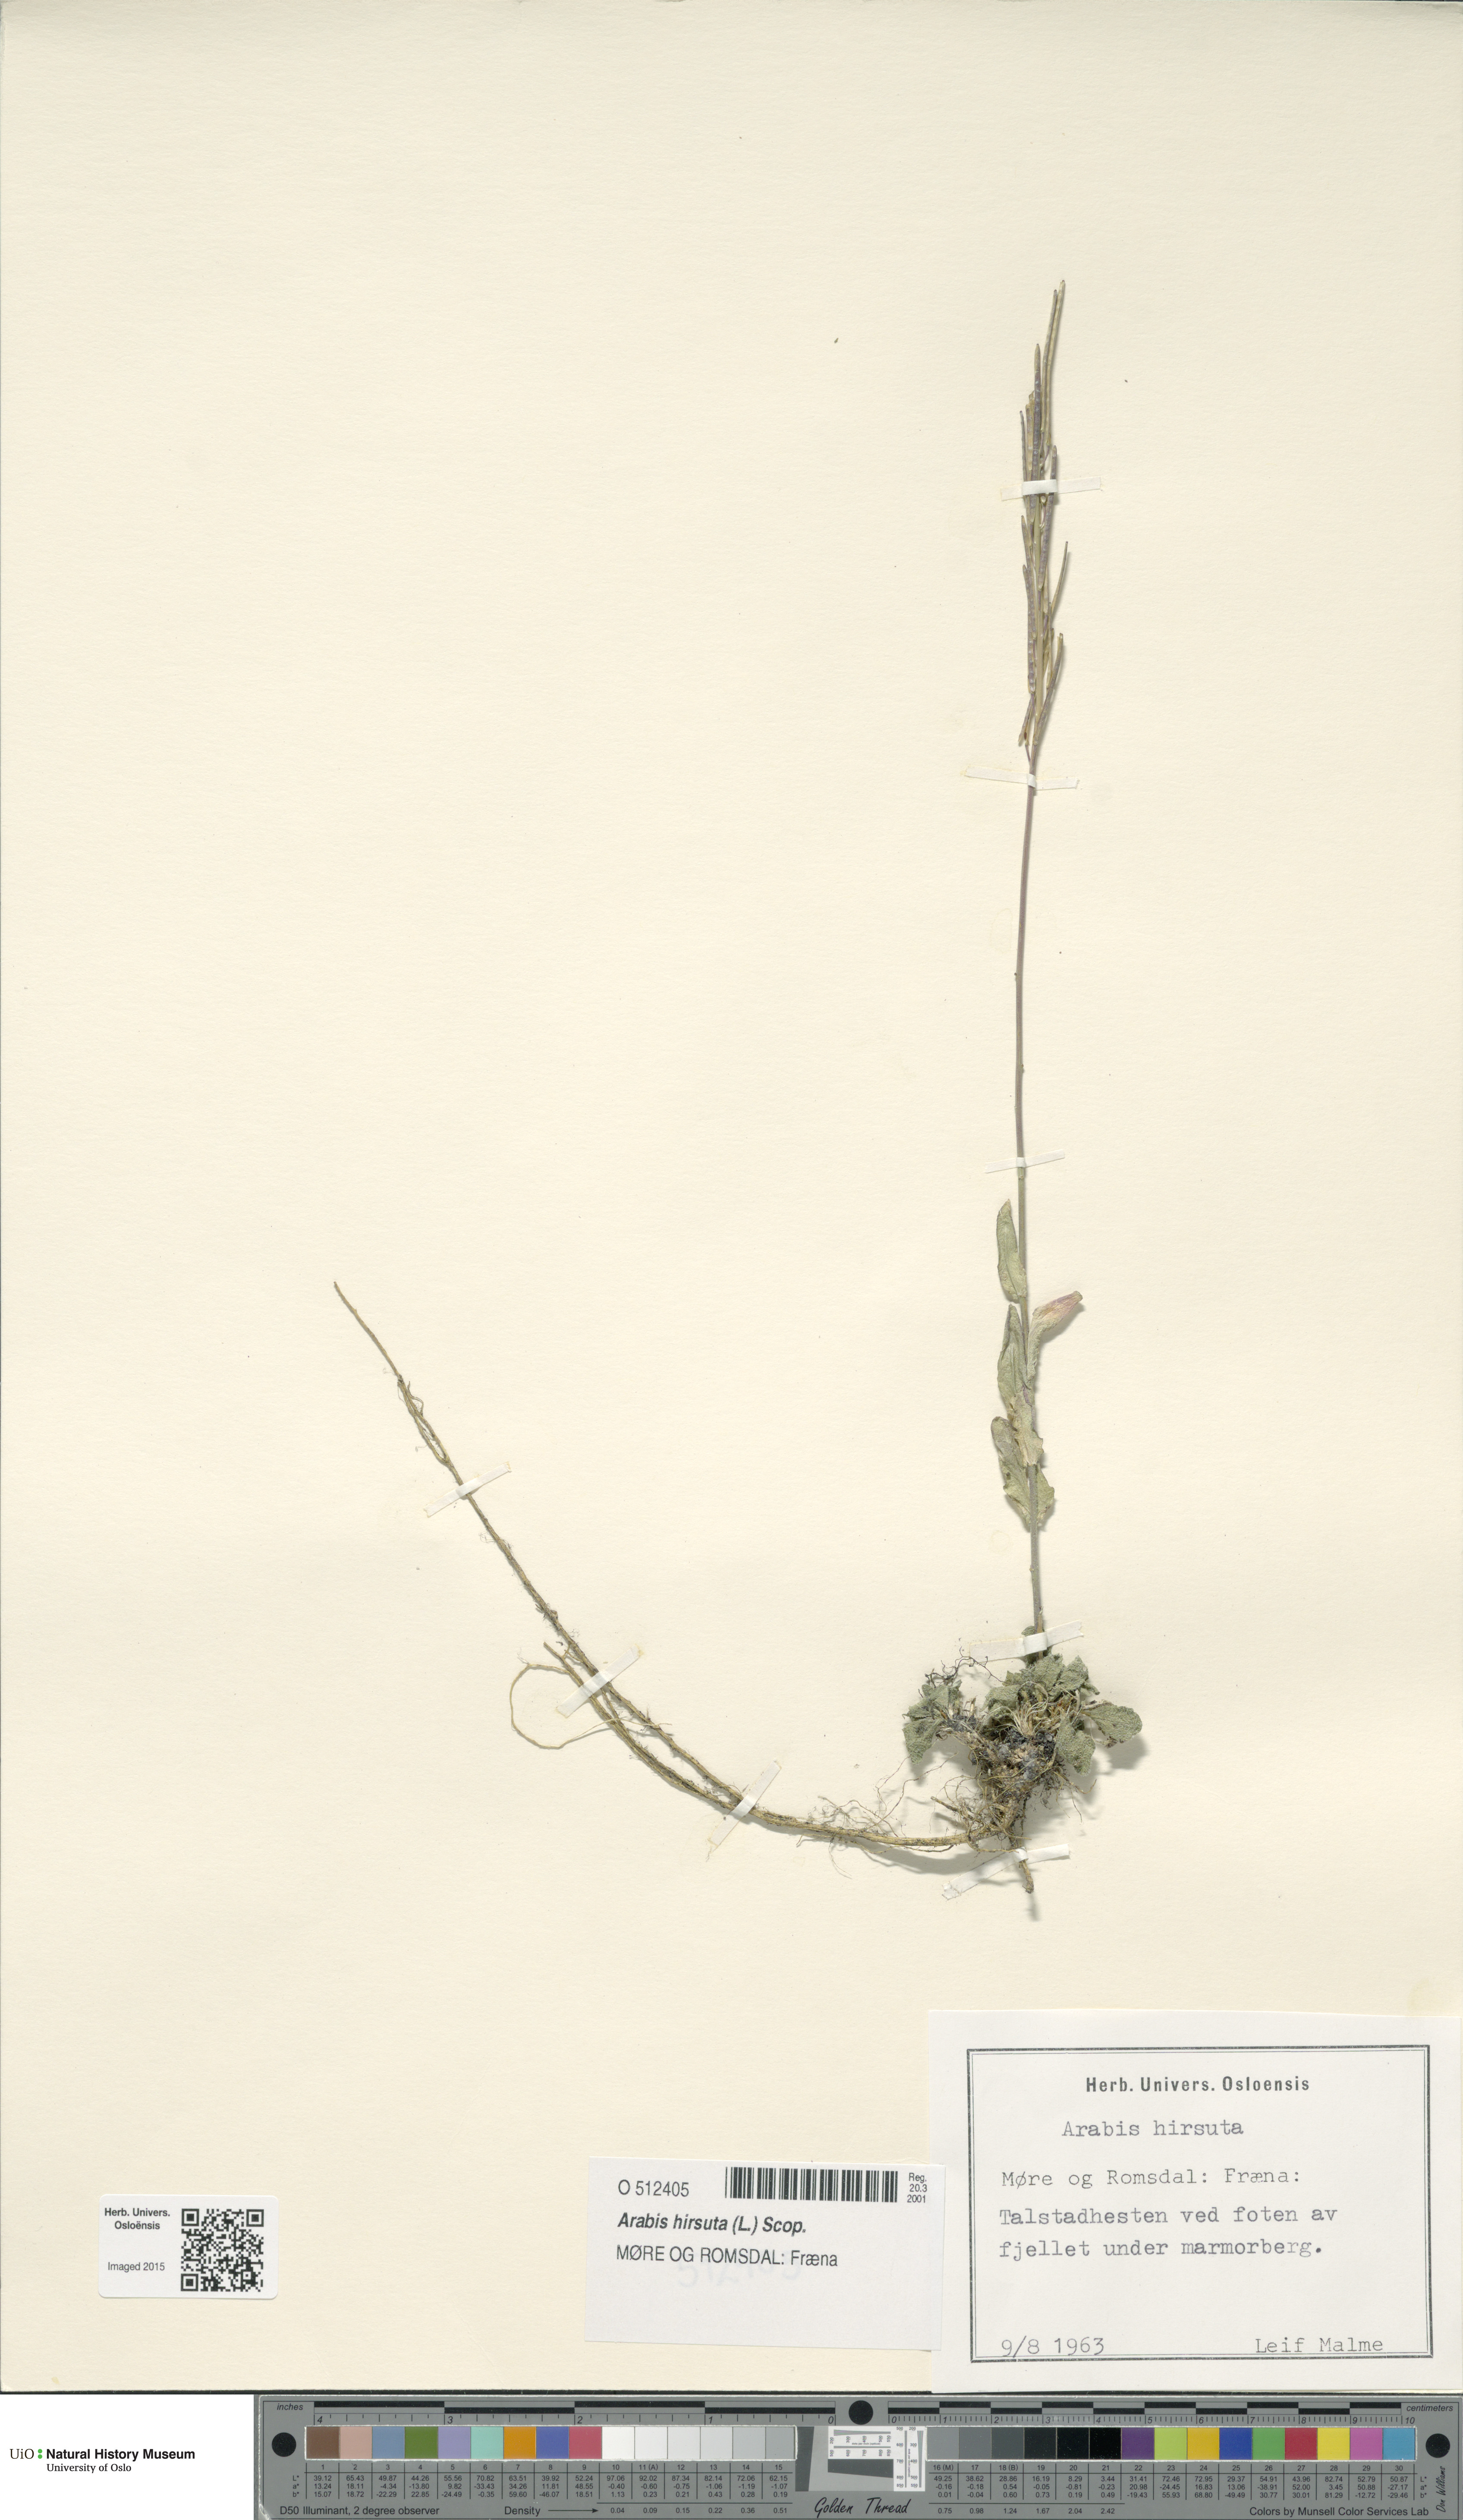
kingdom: Plantae
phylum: Tracheophyta
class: Magnoliopsida
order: Brassicales
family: Brassicaceae
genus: Arabis
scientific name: Arabis hirsuta
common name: Hairy rock-cress
